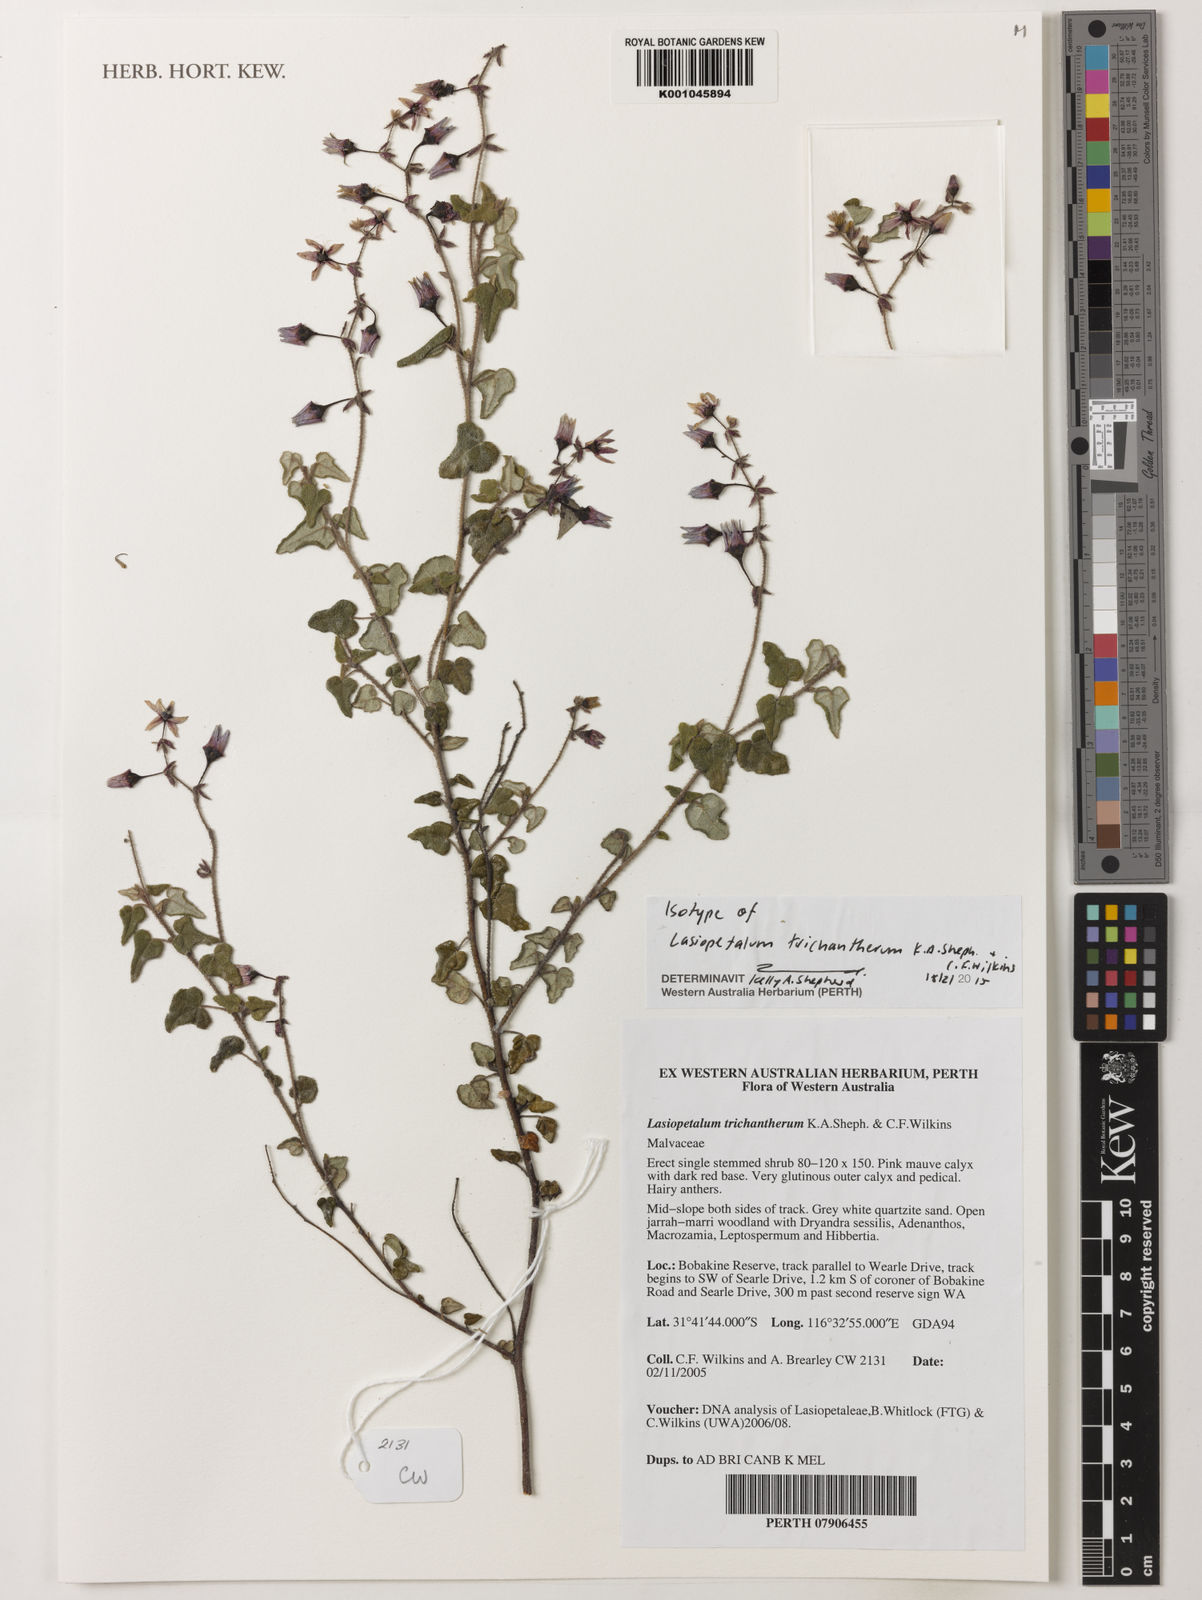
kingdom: Plantae
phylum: Tracheophyta
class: Magnoliopsida
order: Malvales
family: Malvaceae
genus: Lasiopetalum
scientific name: Lasiopetalum
